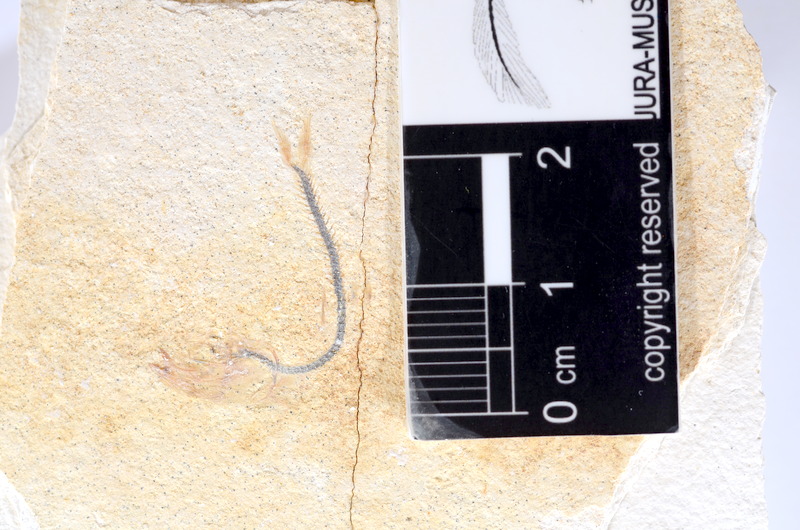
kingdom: Animalia
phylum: Chordata
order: Salmoniformes
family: Orthogonikleithridae
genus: Orthogonikleithrus
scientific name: Orthogonikleithrus hoelli
